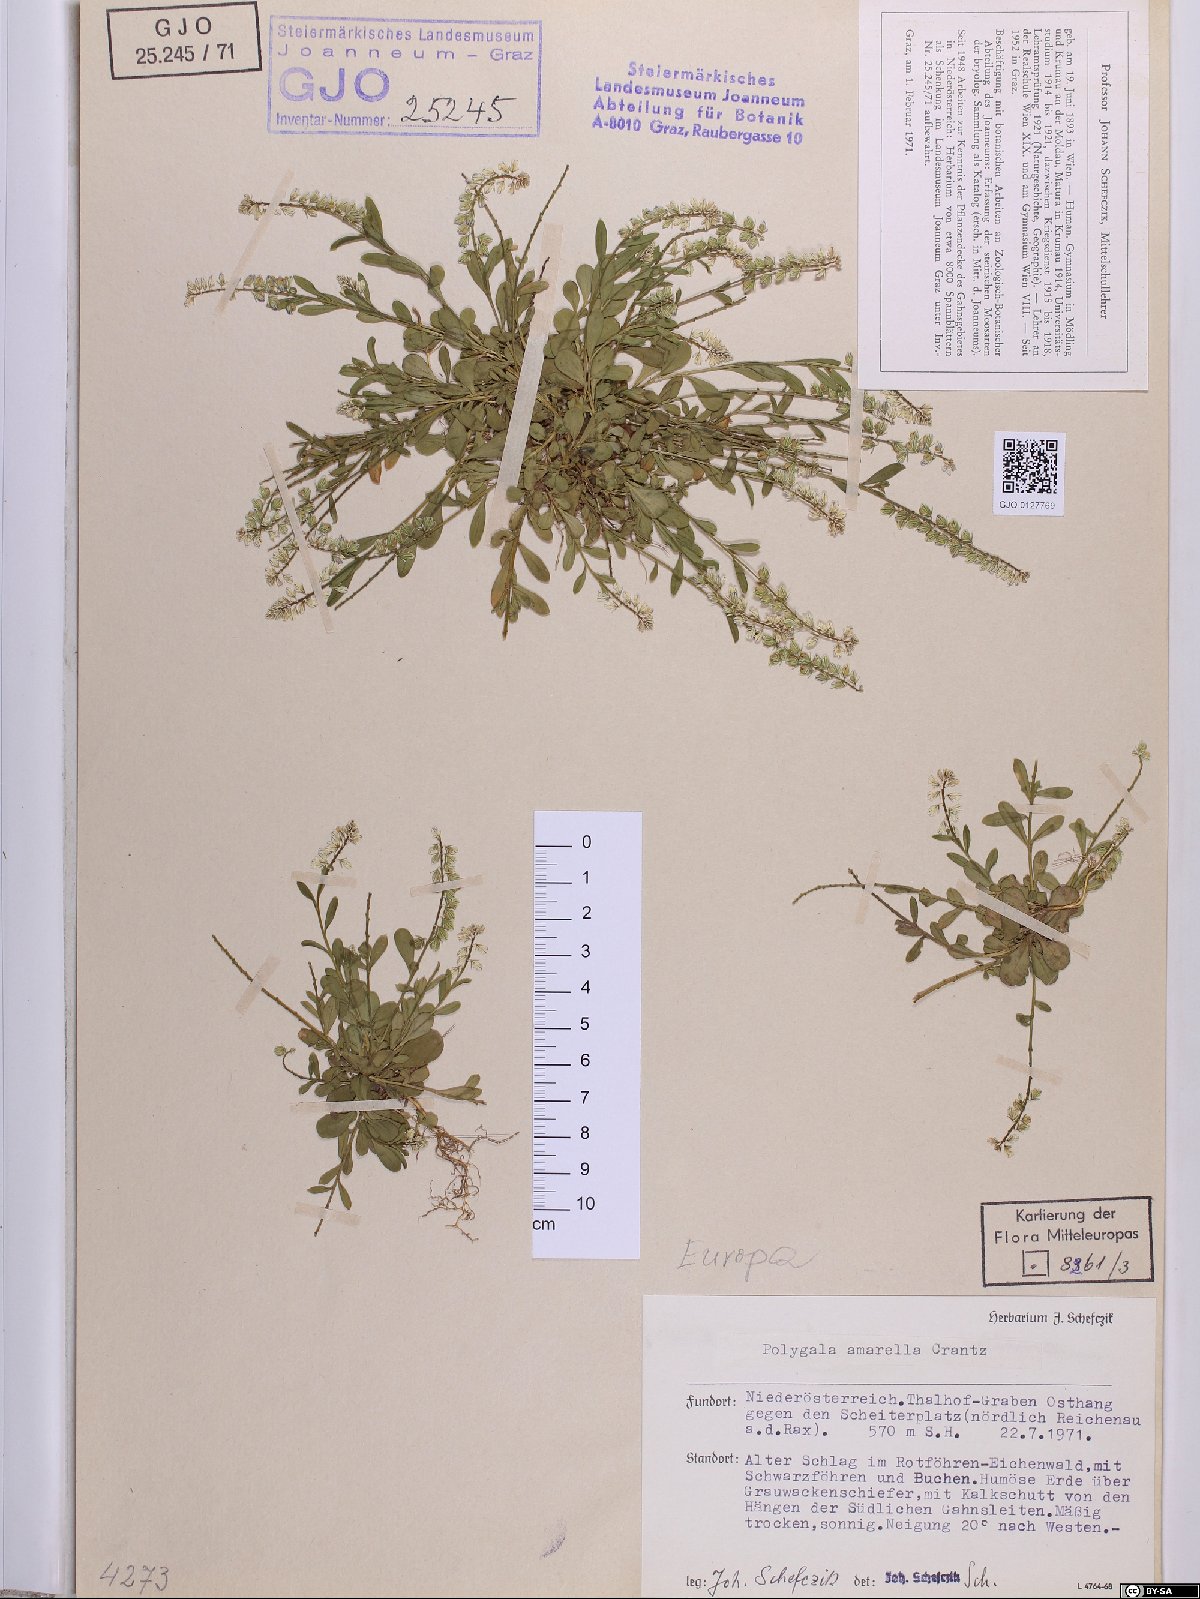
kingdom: Plantae
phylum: Tracheophyta
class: Magnoliopsida
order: Fabales
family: Polygalaceae
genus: Polygala
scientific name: Polygala amarella
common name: Dwarf milkwort
